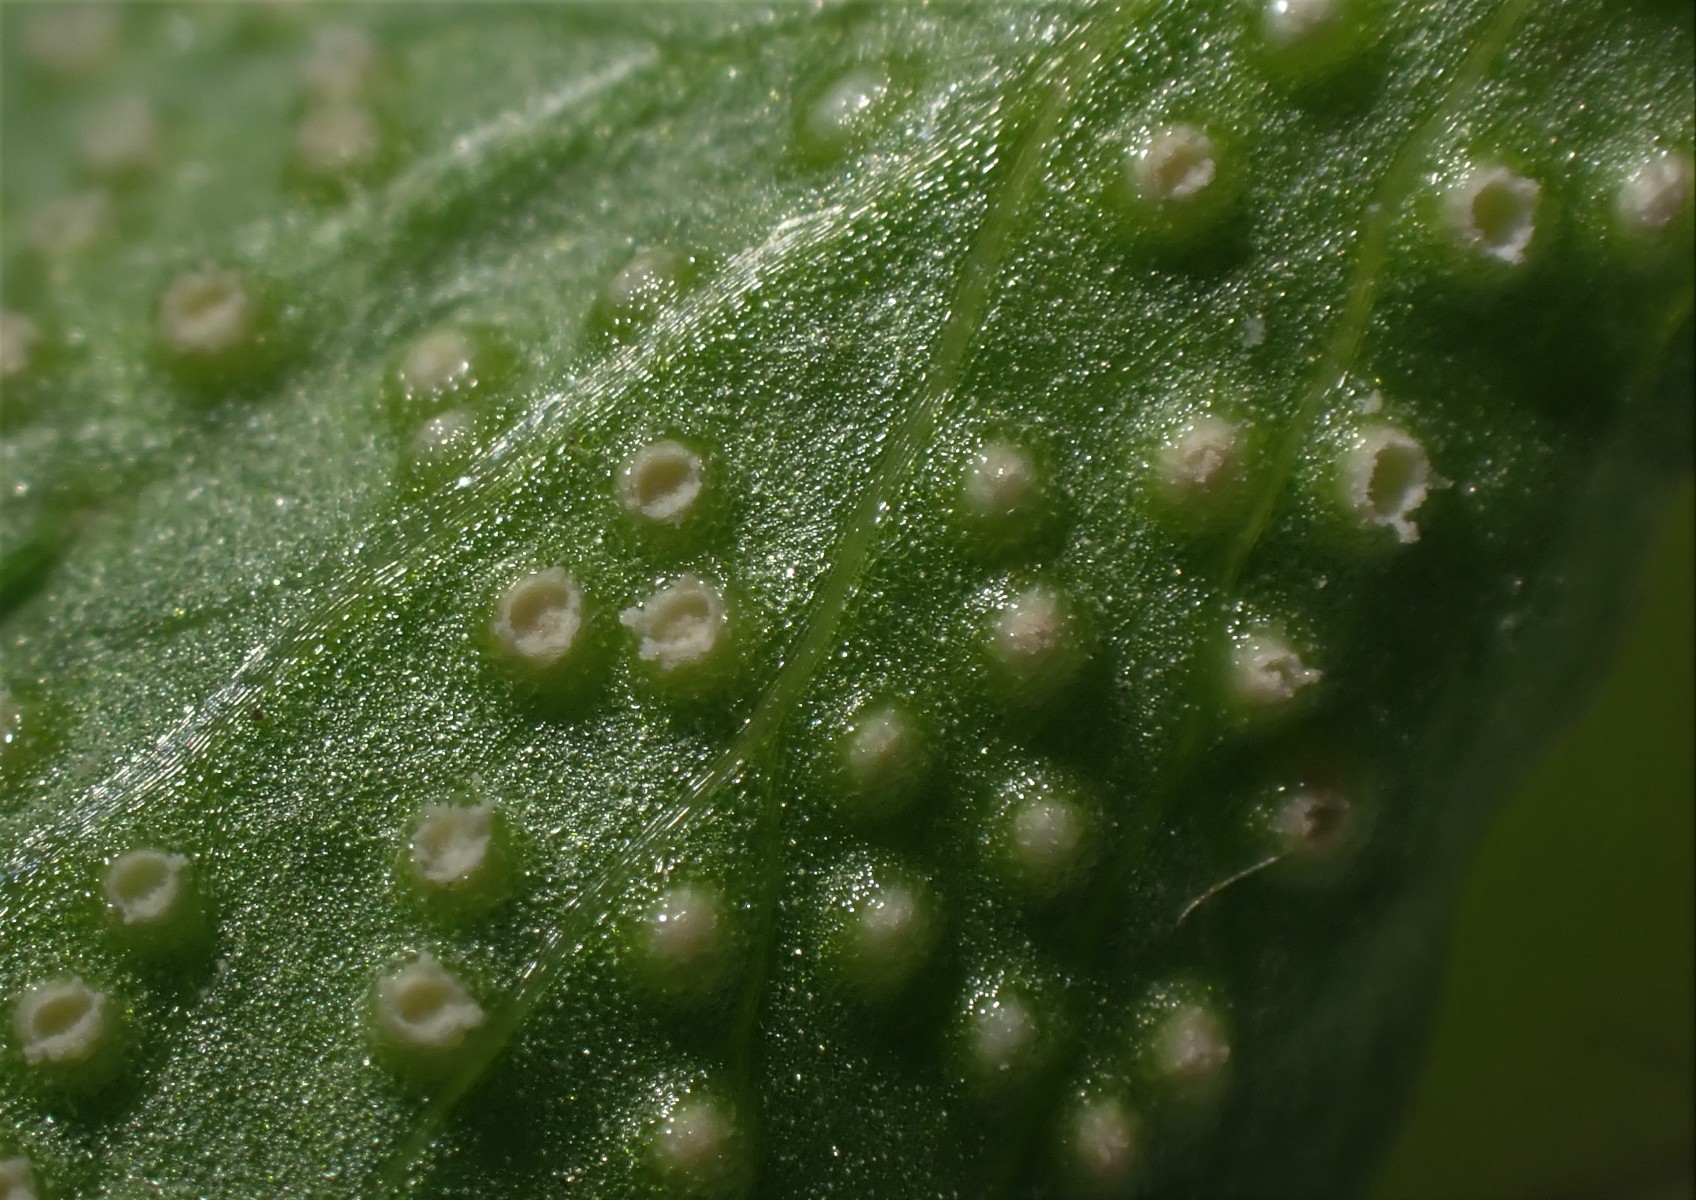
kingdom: Fungi
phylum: Basidiomycota
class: Pucciniomycetes
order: Pucciniales
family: Ochropsoraceae
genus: Ochropsora
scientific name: Ochropsora ariae
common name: anemone-okkerpletrust
